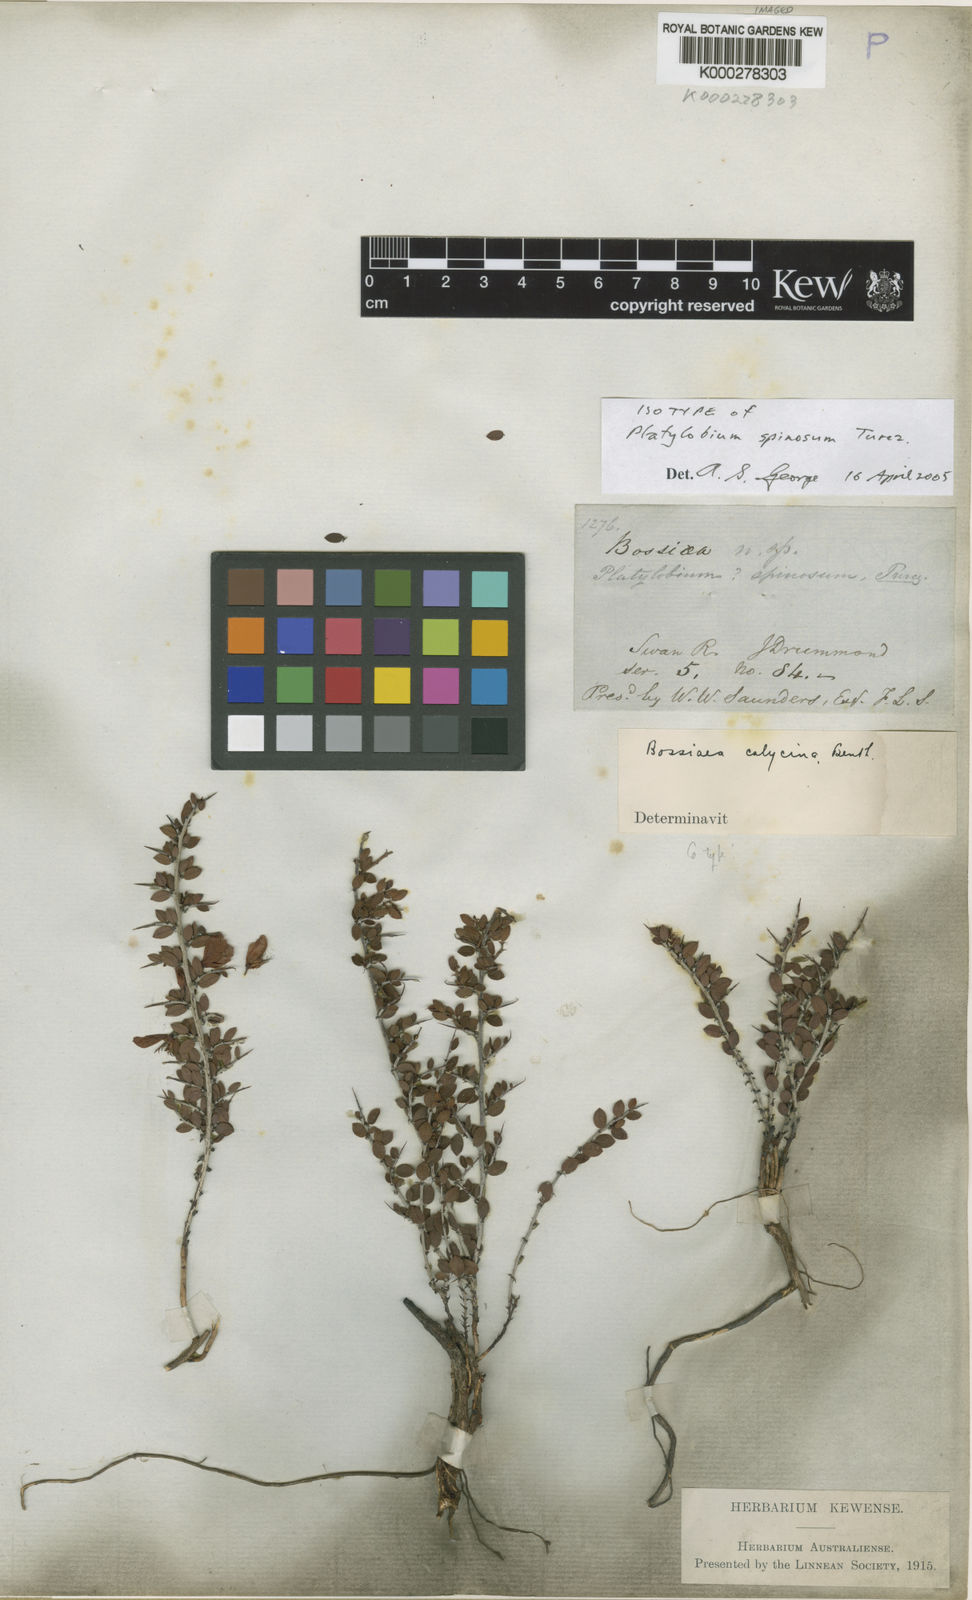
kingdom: Plantae
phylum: Tracheophyta
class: Magnoliopsida
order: Fabales
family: Fabaceae
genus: Bossiaea
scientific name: Bossiaea spinosa
